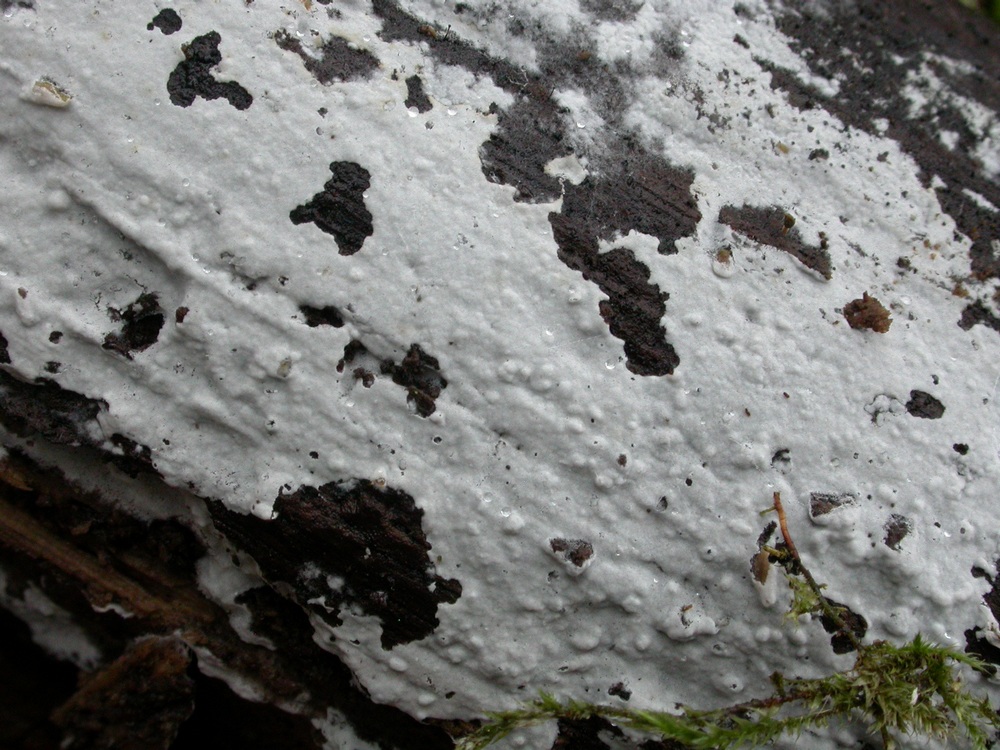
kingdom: Fungi
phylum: Basidiomycota
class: Agaricomycetes
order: Atheliales
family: Atheliaceae
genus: Athelia
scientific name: Athelia epiphylla
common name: almindelig barkhinde
